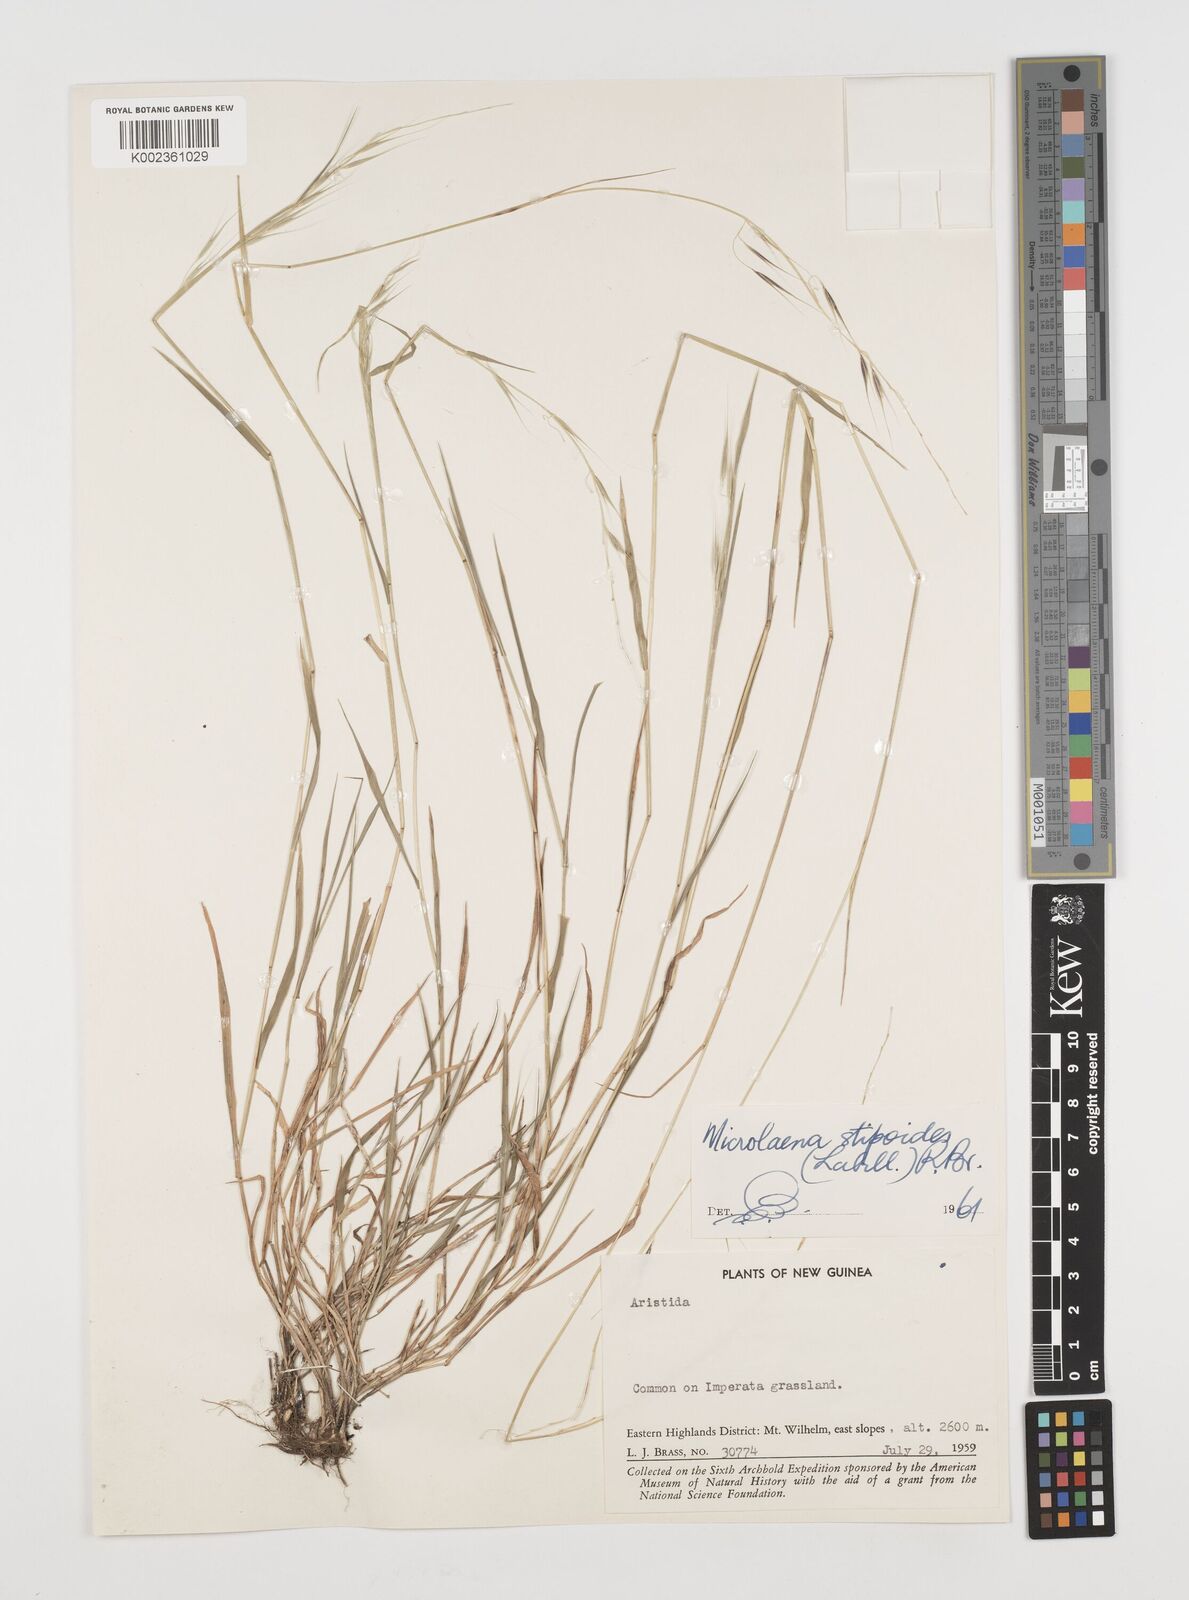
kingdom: Plantae
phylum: Tracheophyta
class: Liliopsida
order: Poales
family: Poaceae
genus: Microlaena
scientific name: Microlaena stipoides
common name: Meadow ricegrass
